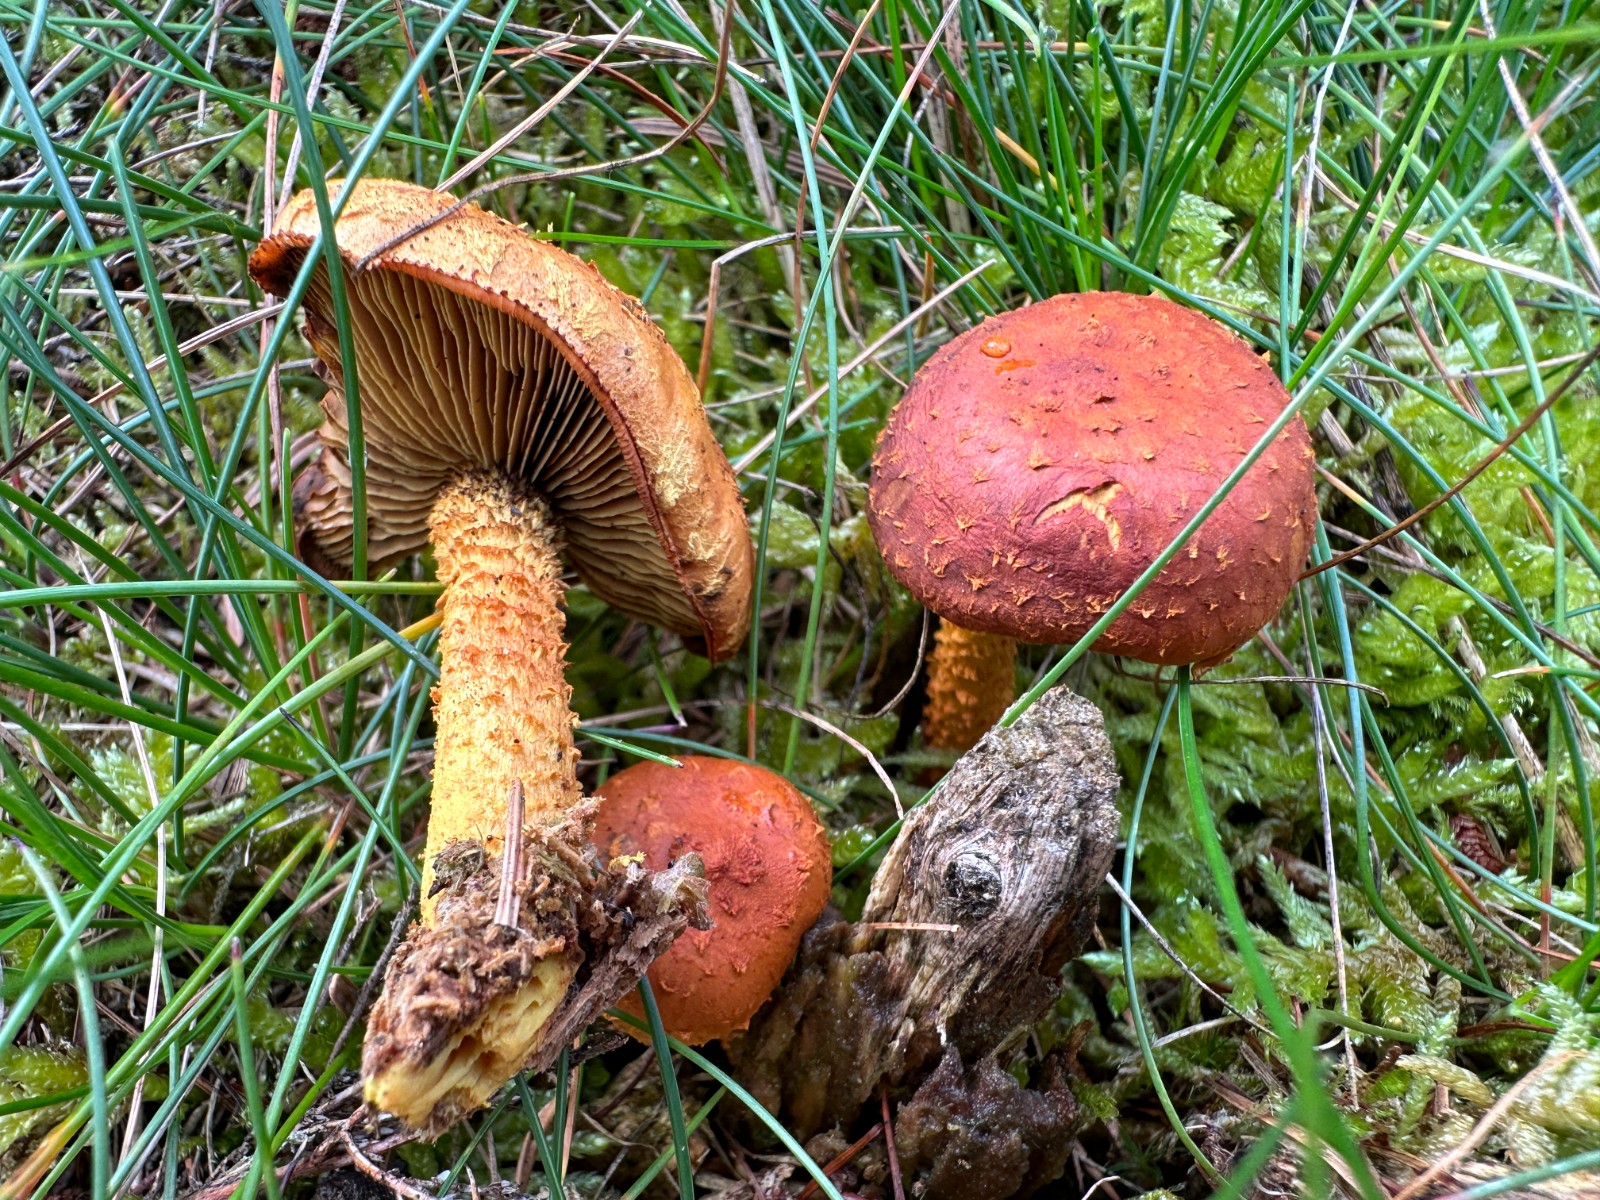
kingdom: Fungi
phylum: Basidiomycota
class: Agaricomycetes
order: Agaricales
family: Strophariaceae
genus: Pholiota
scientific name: Pholiota flammans
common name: flamme-skælhat
